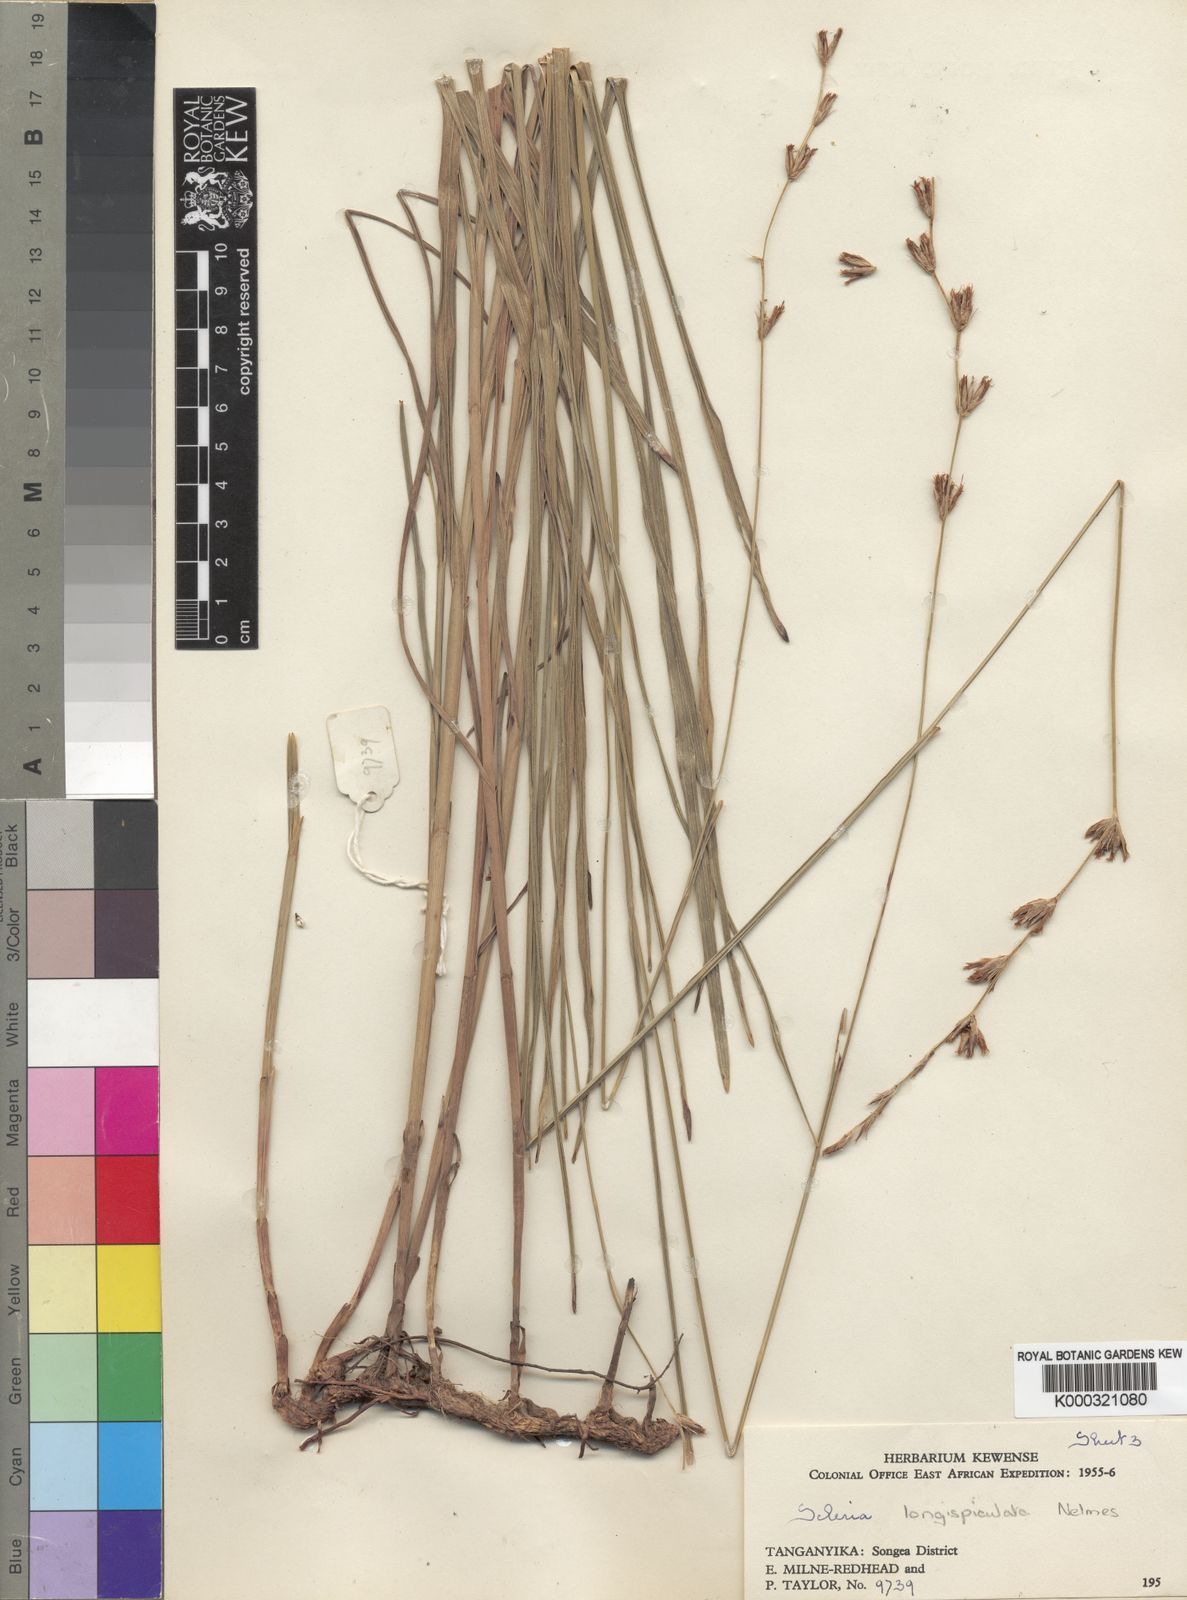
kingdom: Plantae
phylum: Tracheophyta
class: Liliopsida
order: Poales
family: Cyperaceae
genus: Scleria
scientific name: Scleria longispiculata
